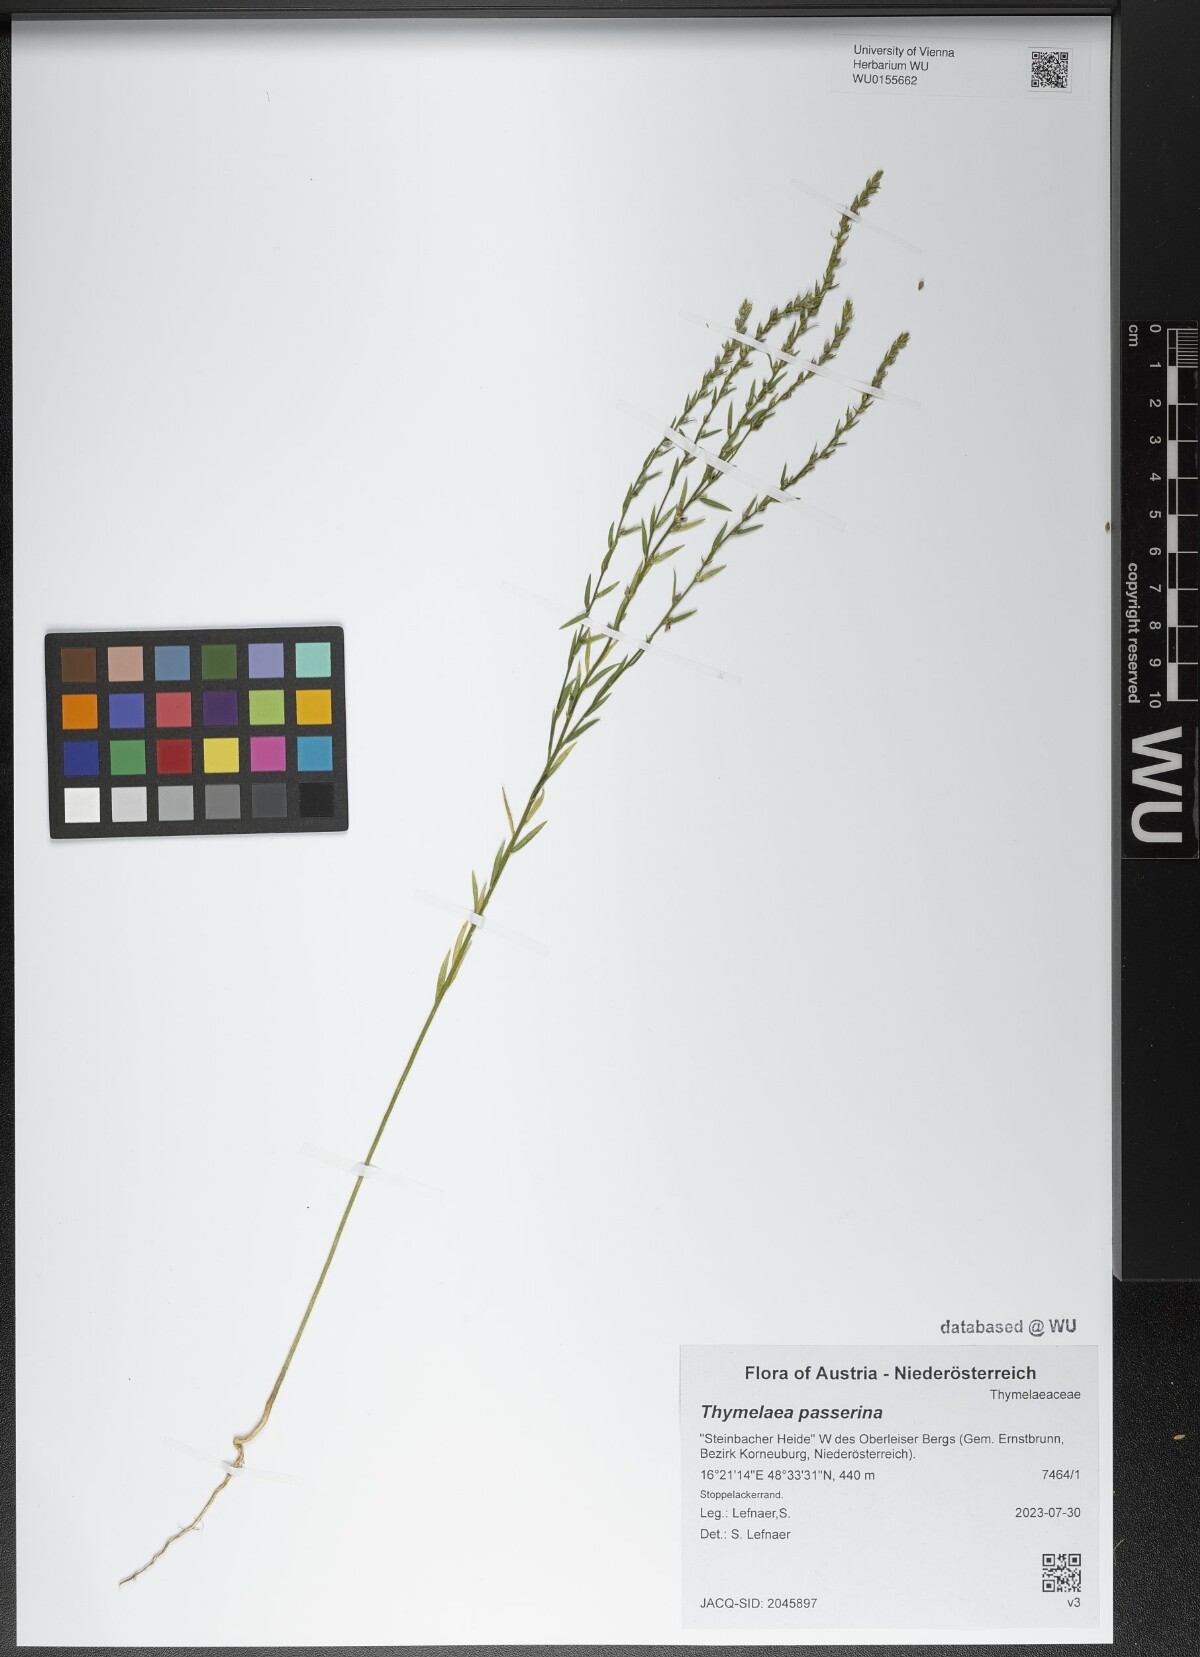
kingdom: Plantae
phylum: Tracheophyta
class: Magnoliopsida
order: Malvales
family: Thymelaeaceae
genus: Thymelaea
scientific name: Thymelaea passerina
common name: Annual thymelaea
